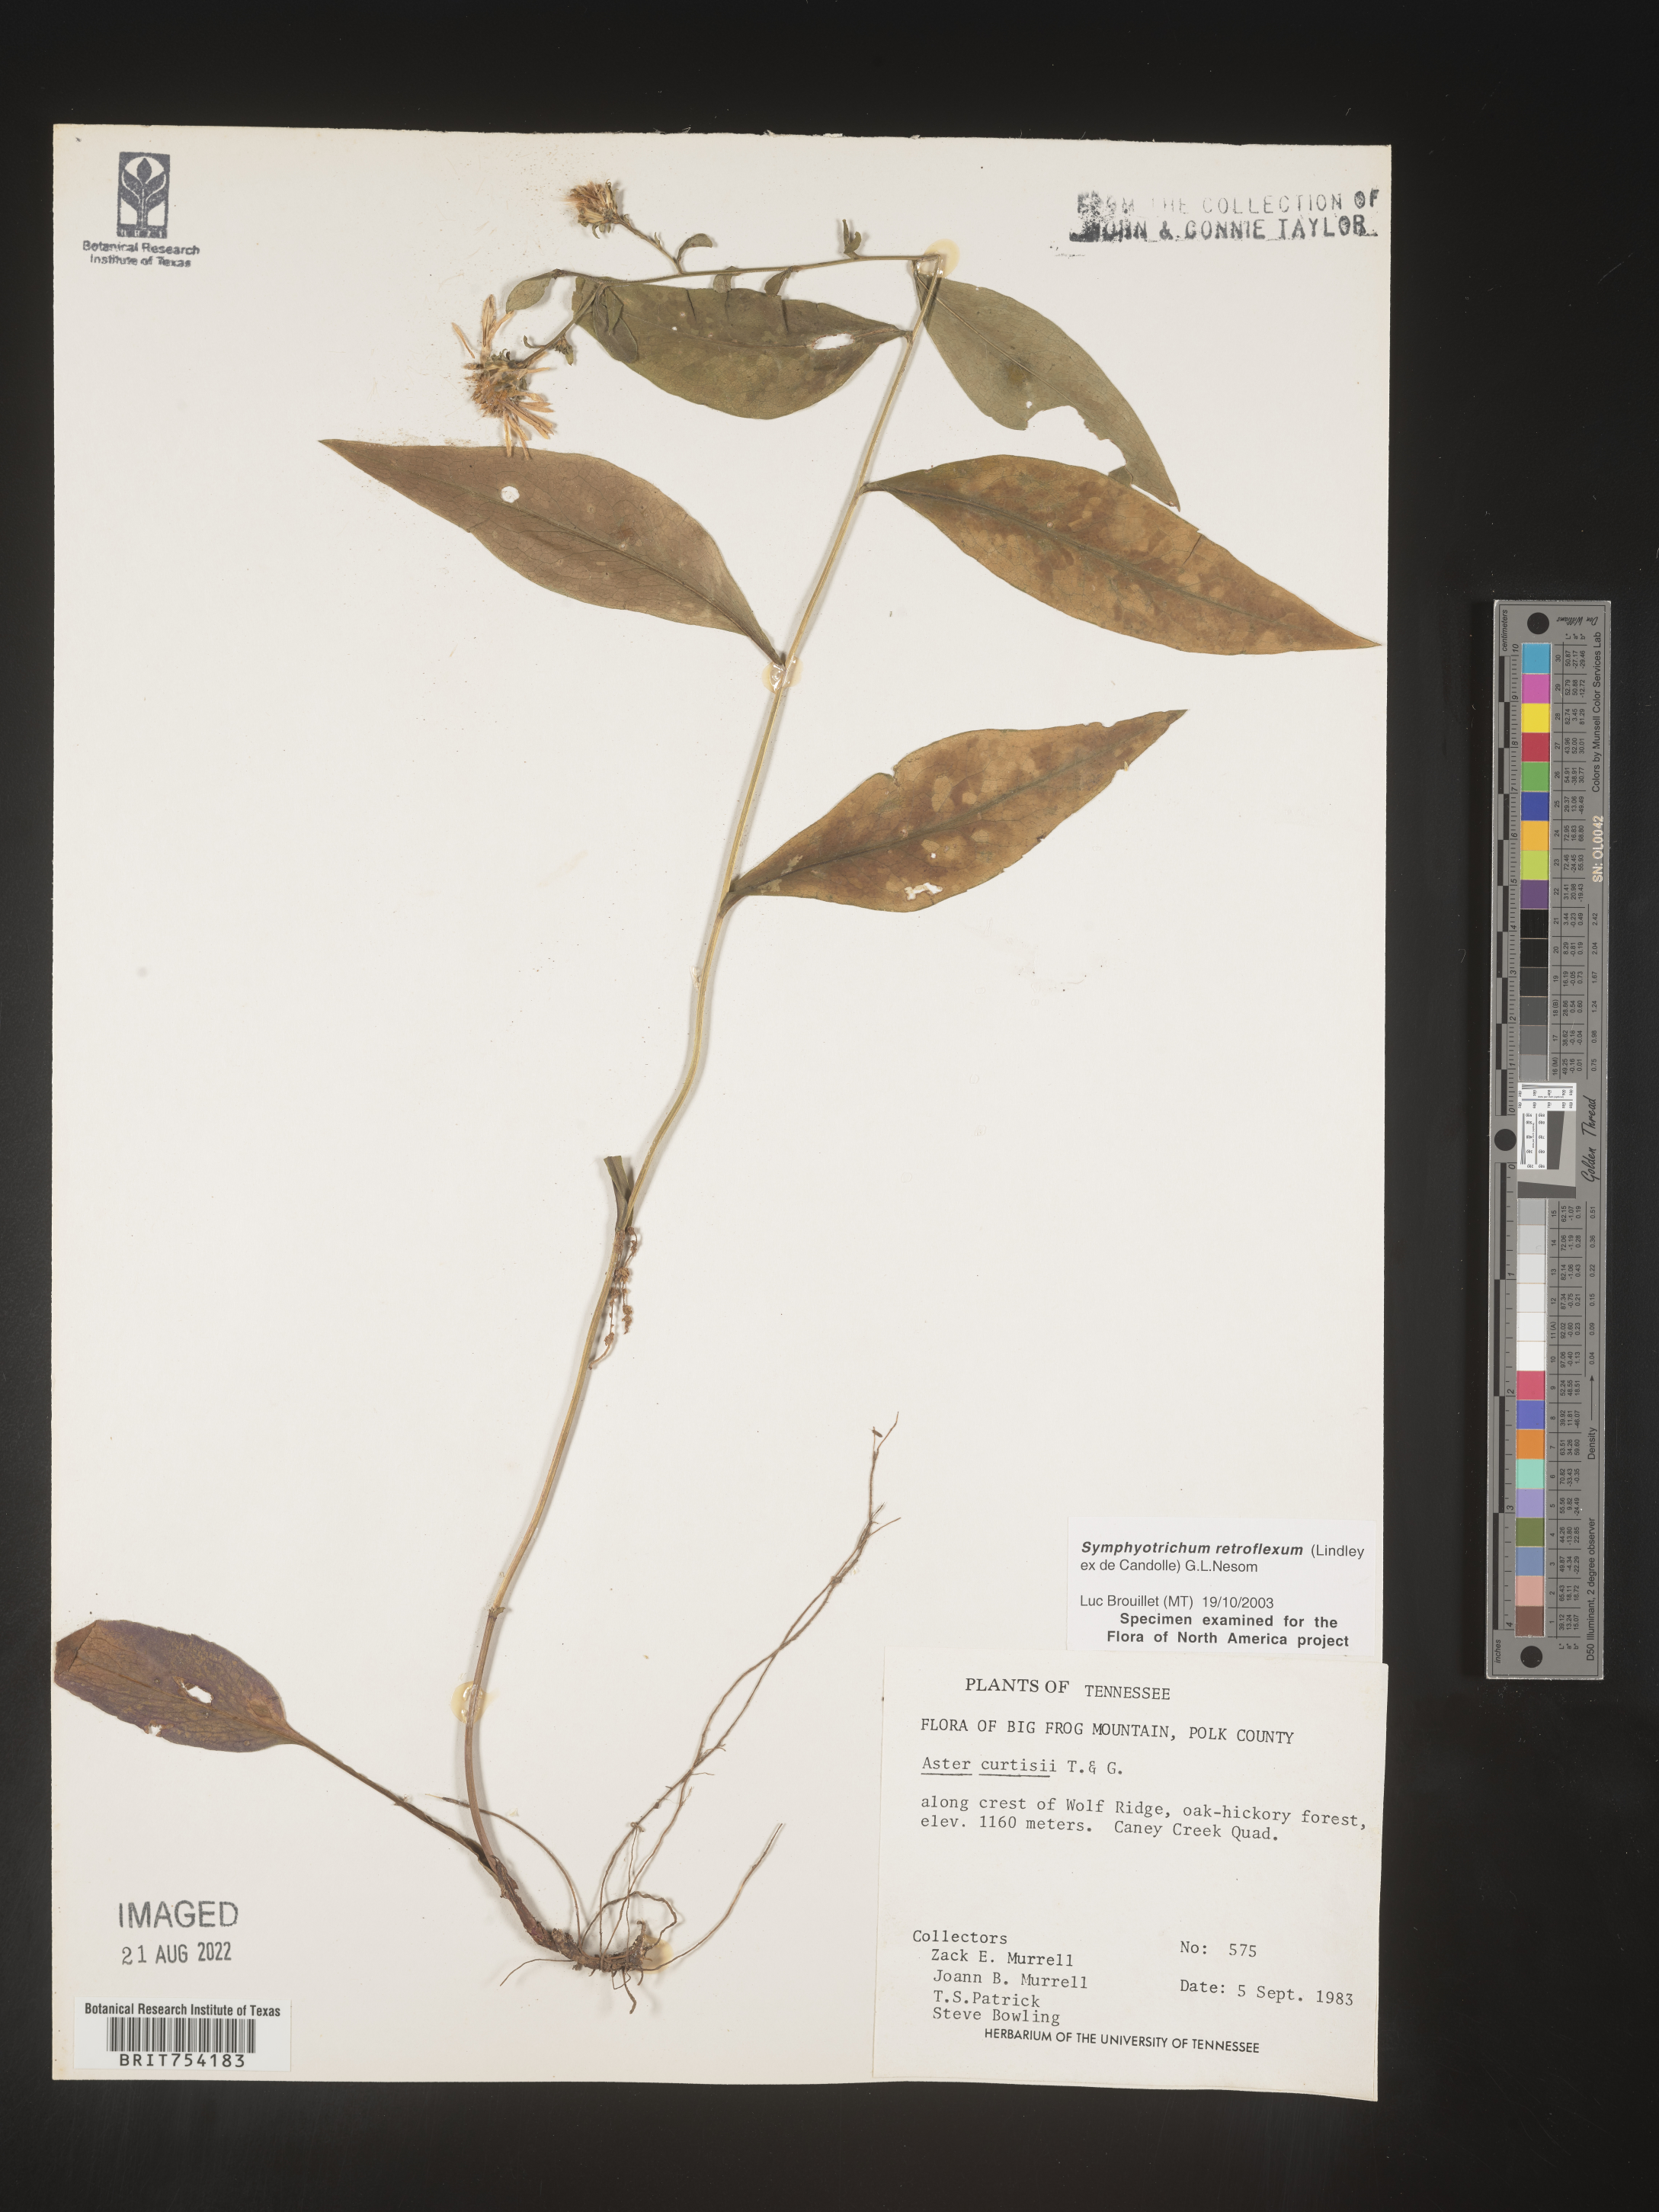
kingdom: Plantae
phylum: Tracheophyta
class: Magnoliopsida
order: Asterales
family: Asteraceae
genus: Symphyotrichum
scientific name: Symphyotrichum retroflexum
